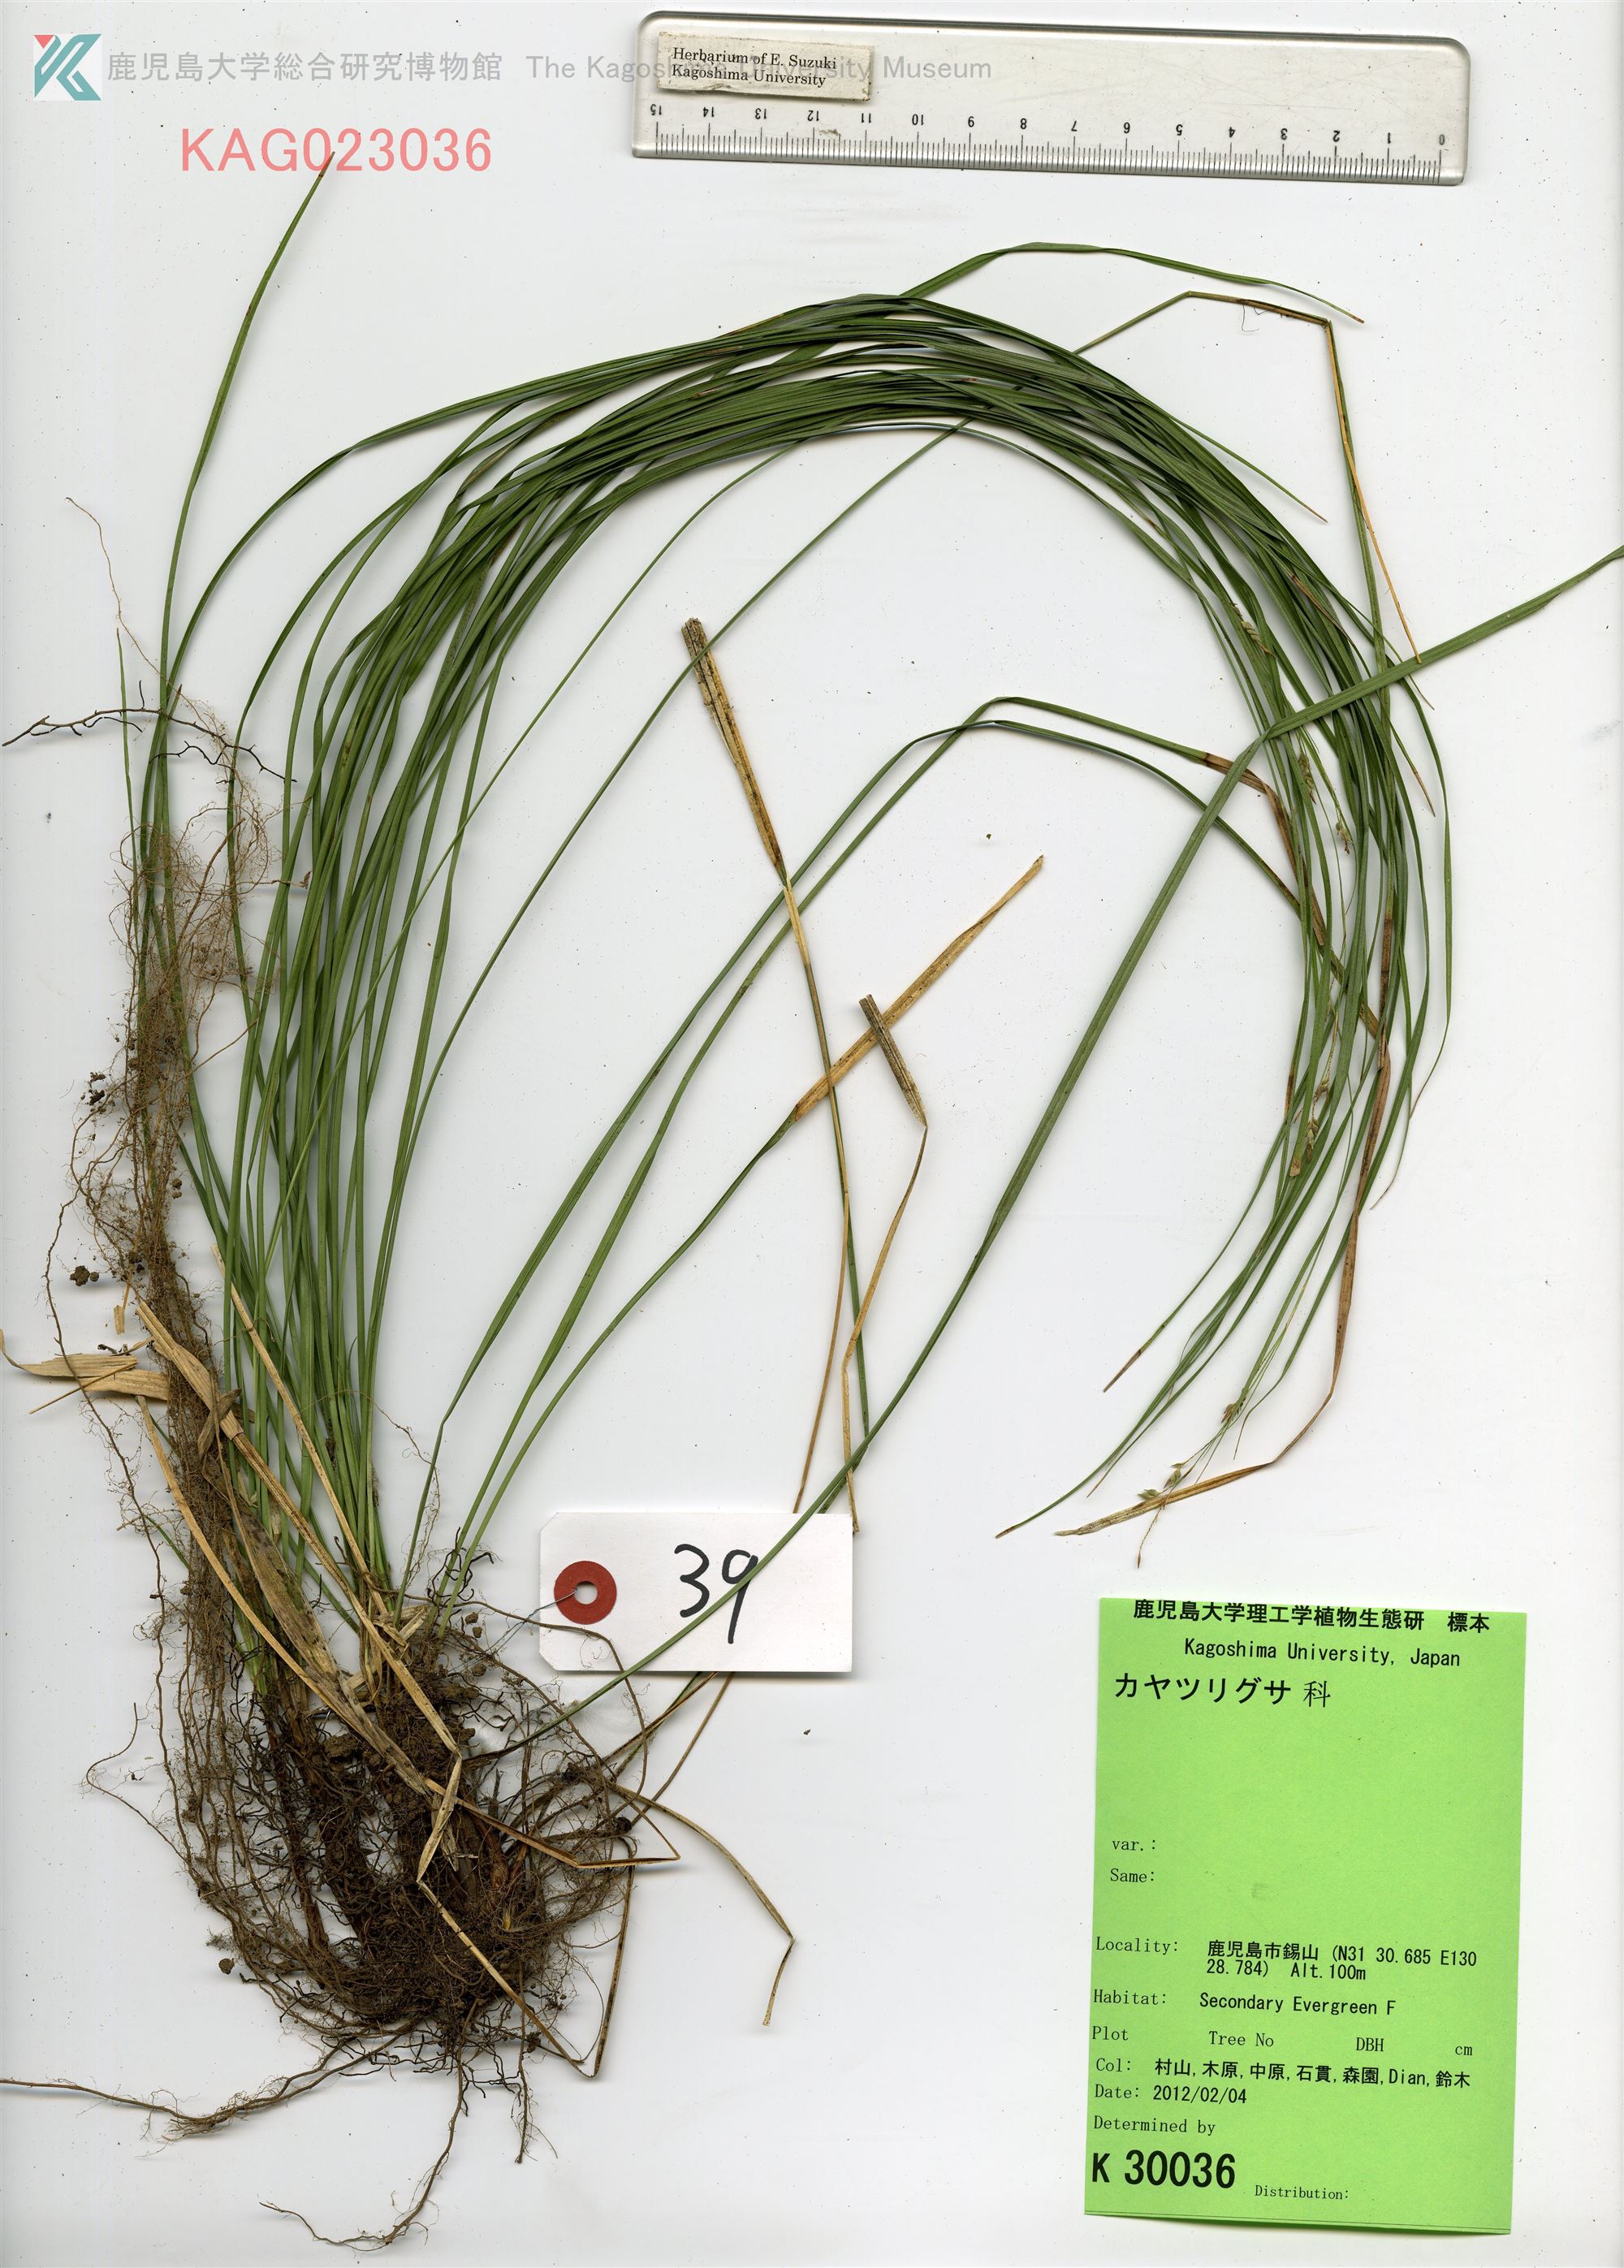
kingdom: Plantae
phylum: Tracheophyta
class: Liliopsida
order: Poales
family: Cyperaceae
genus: Carex
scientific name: Carex
